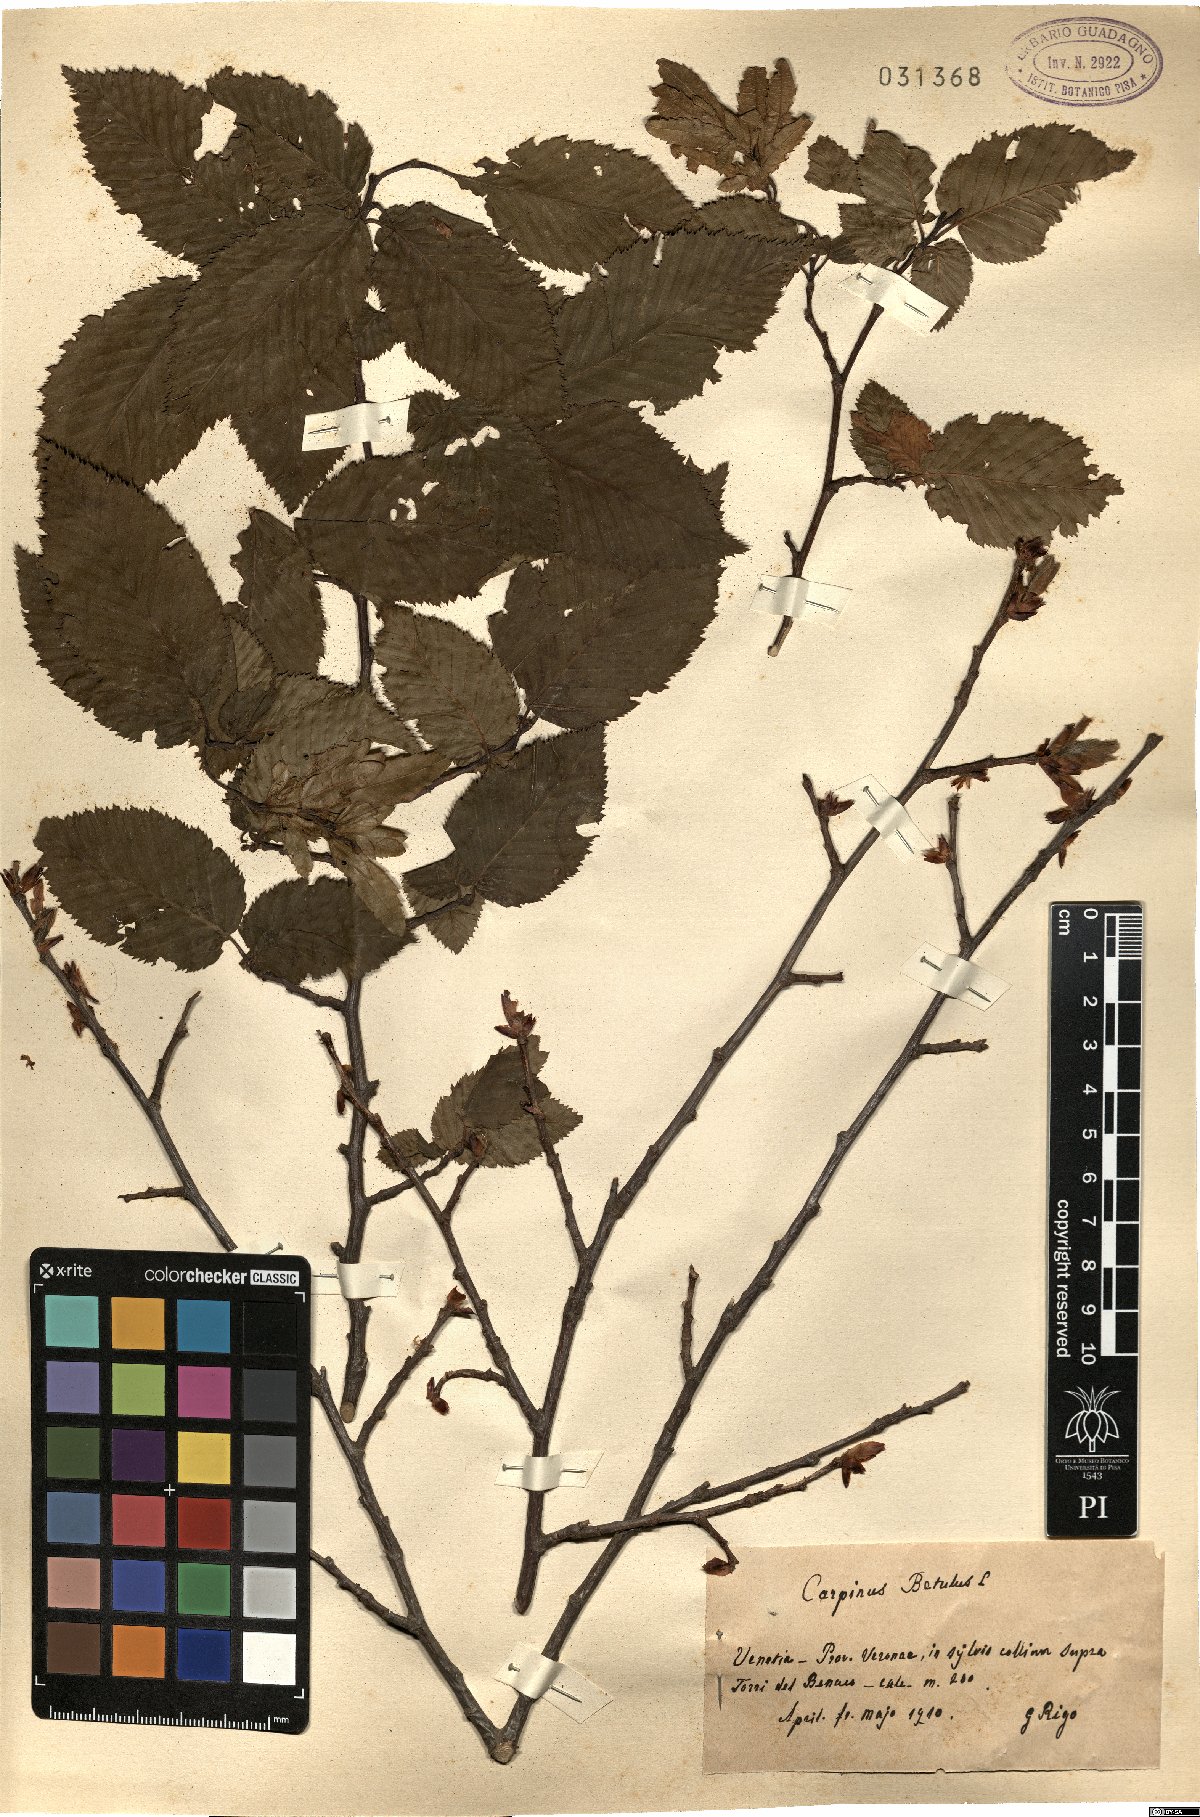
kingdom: Plantae
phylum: Tracheophyta
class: Magnoliopsida
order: Fagales
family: Betulaceae
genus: Carpinus
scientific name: Carpinus betulus
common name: Hornbeam
